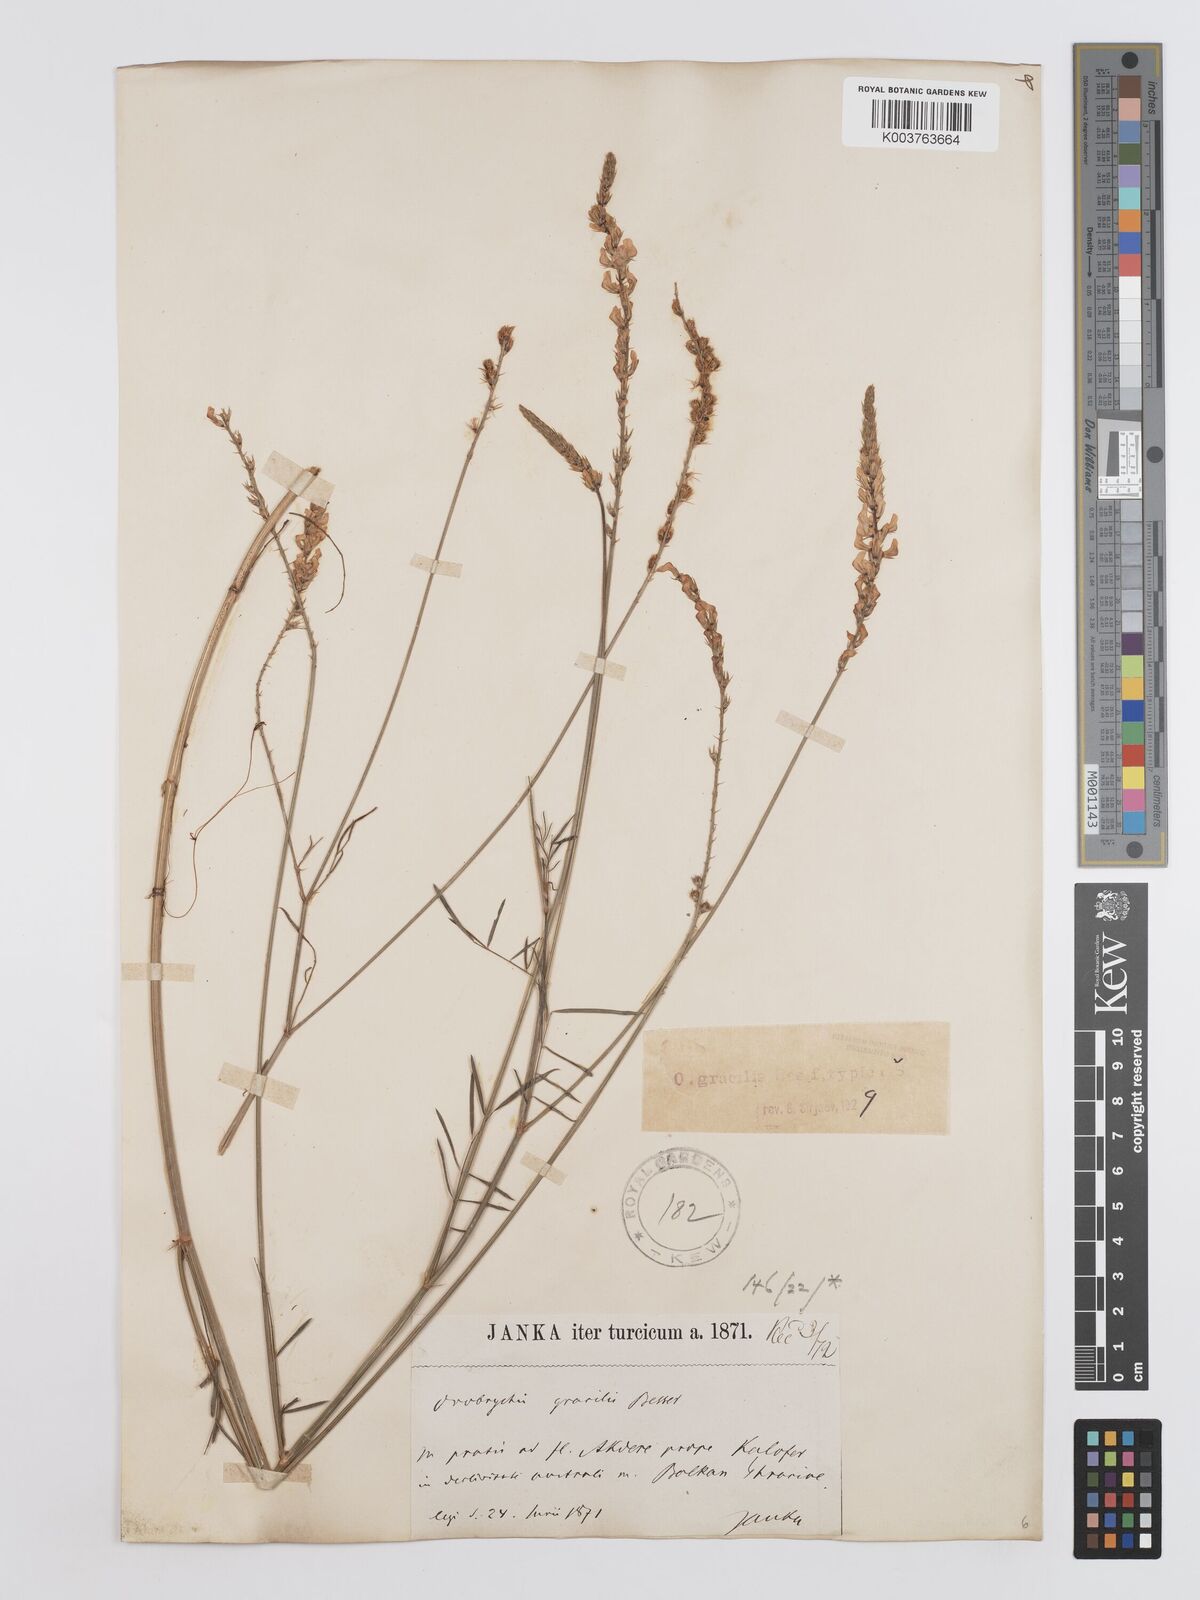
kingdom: Plantae
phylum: Tracheophyta
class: Magnoliopsida
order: Fabales
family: Fabaceae
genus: Onobrychis
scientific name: Onobrychis gracilis
